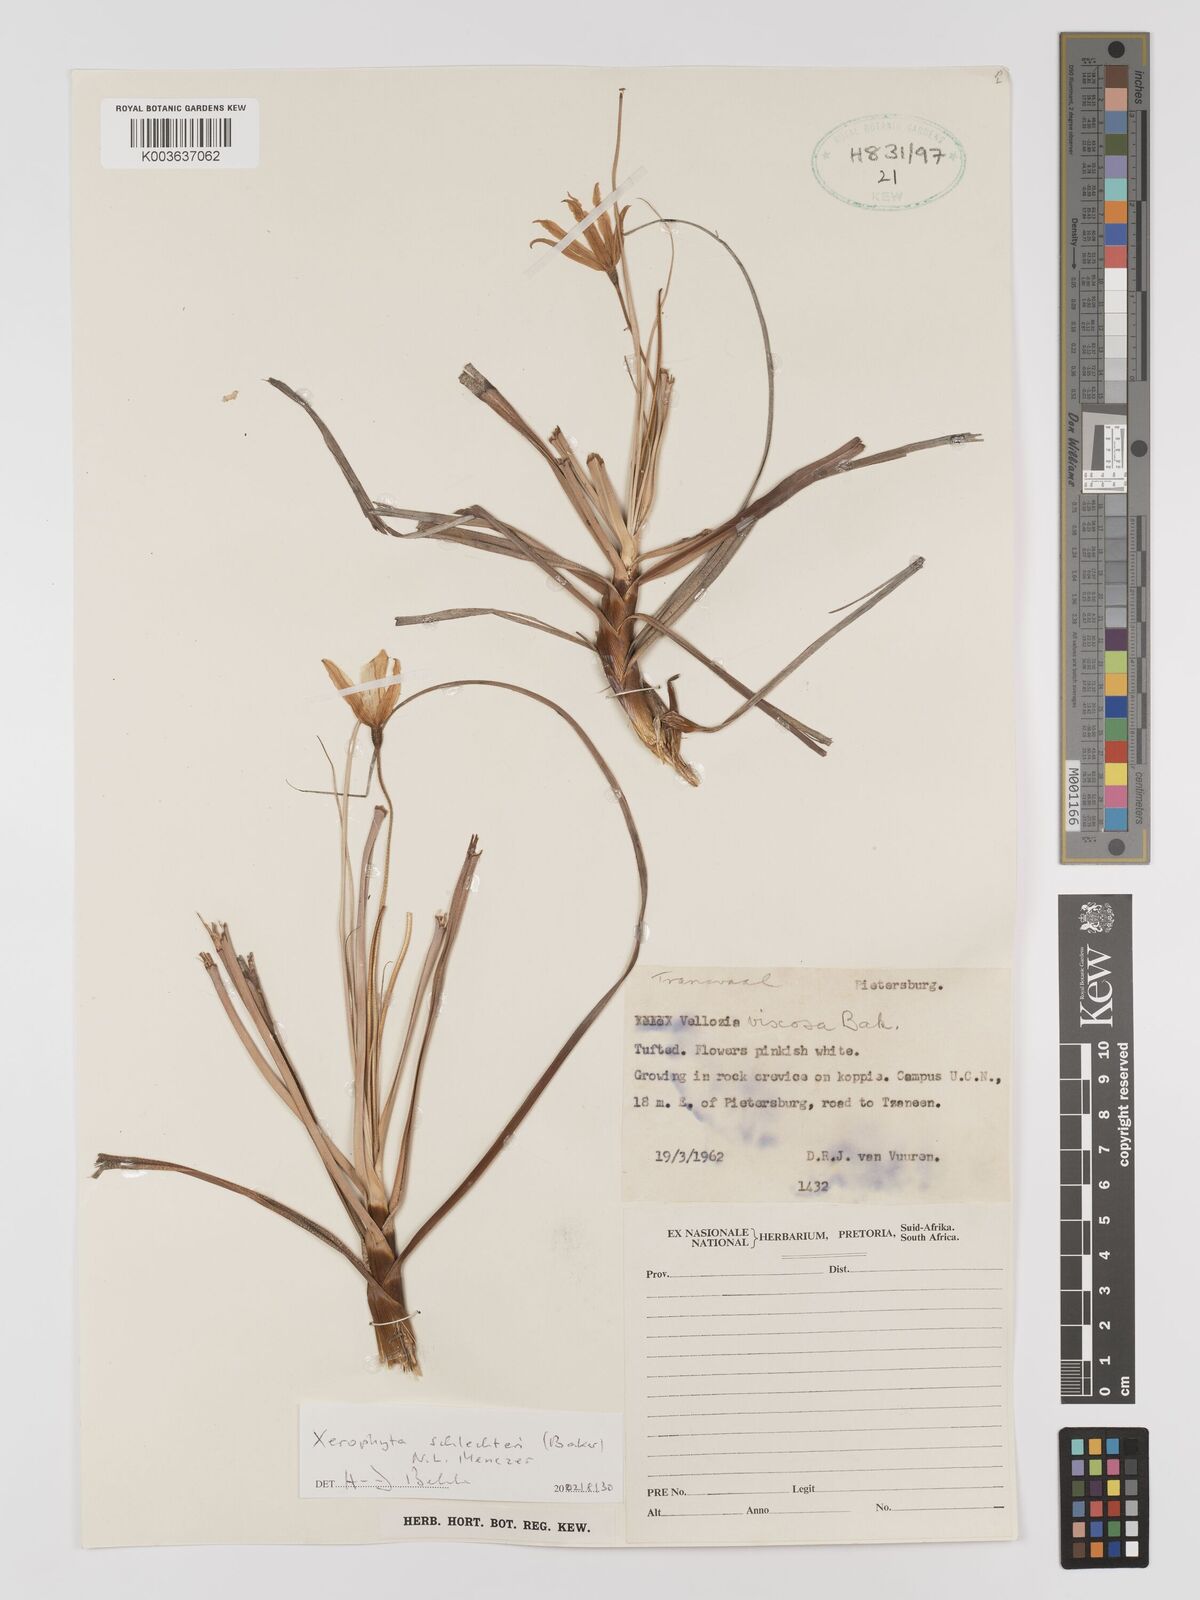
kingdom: Plantae
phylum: Tracheophyta
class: Liliopsida
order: Pandanales
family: Velloziaceae
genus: Xerophyta
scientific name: Xerophyta schlechteri
